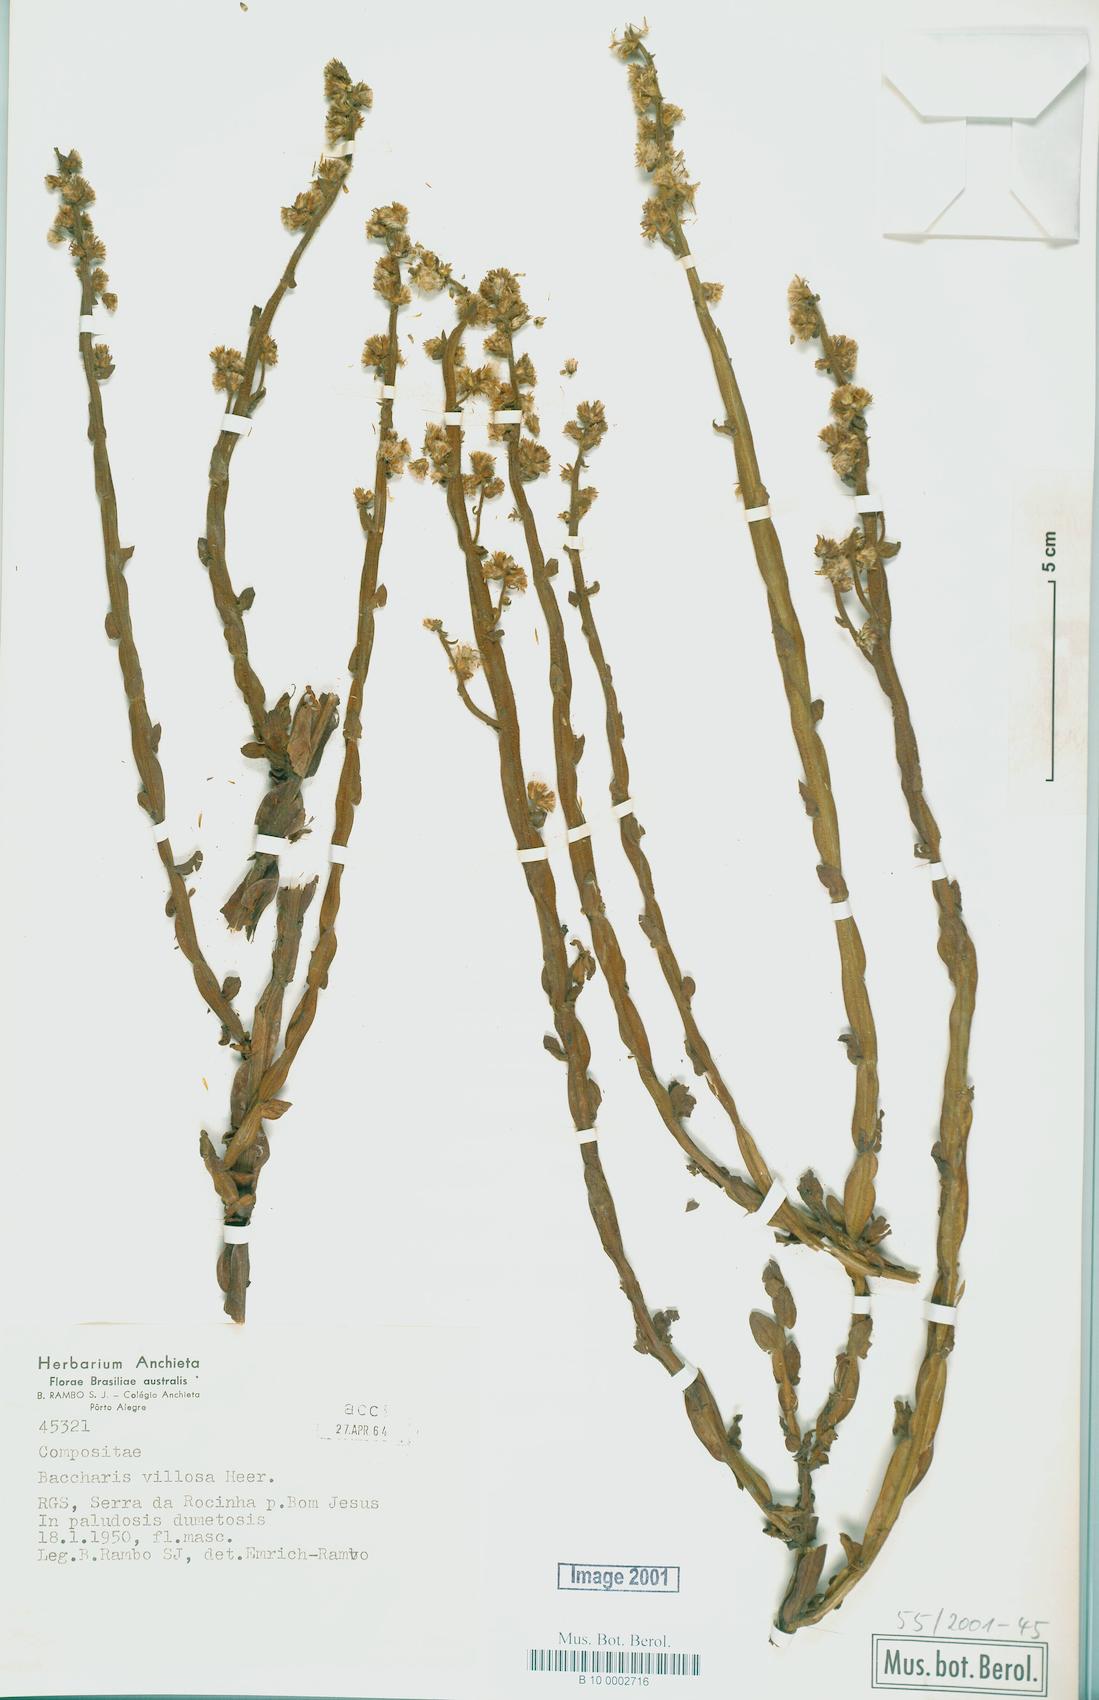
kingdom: Plantae
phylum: Tracheophyta
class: Magnoliopsida
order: Asterales
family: Asteraceae
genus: Baccharis
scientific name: Baccharis villosa
